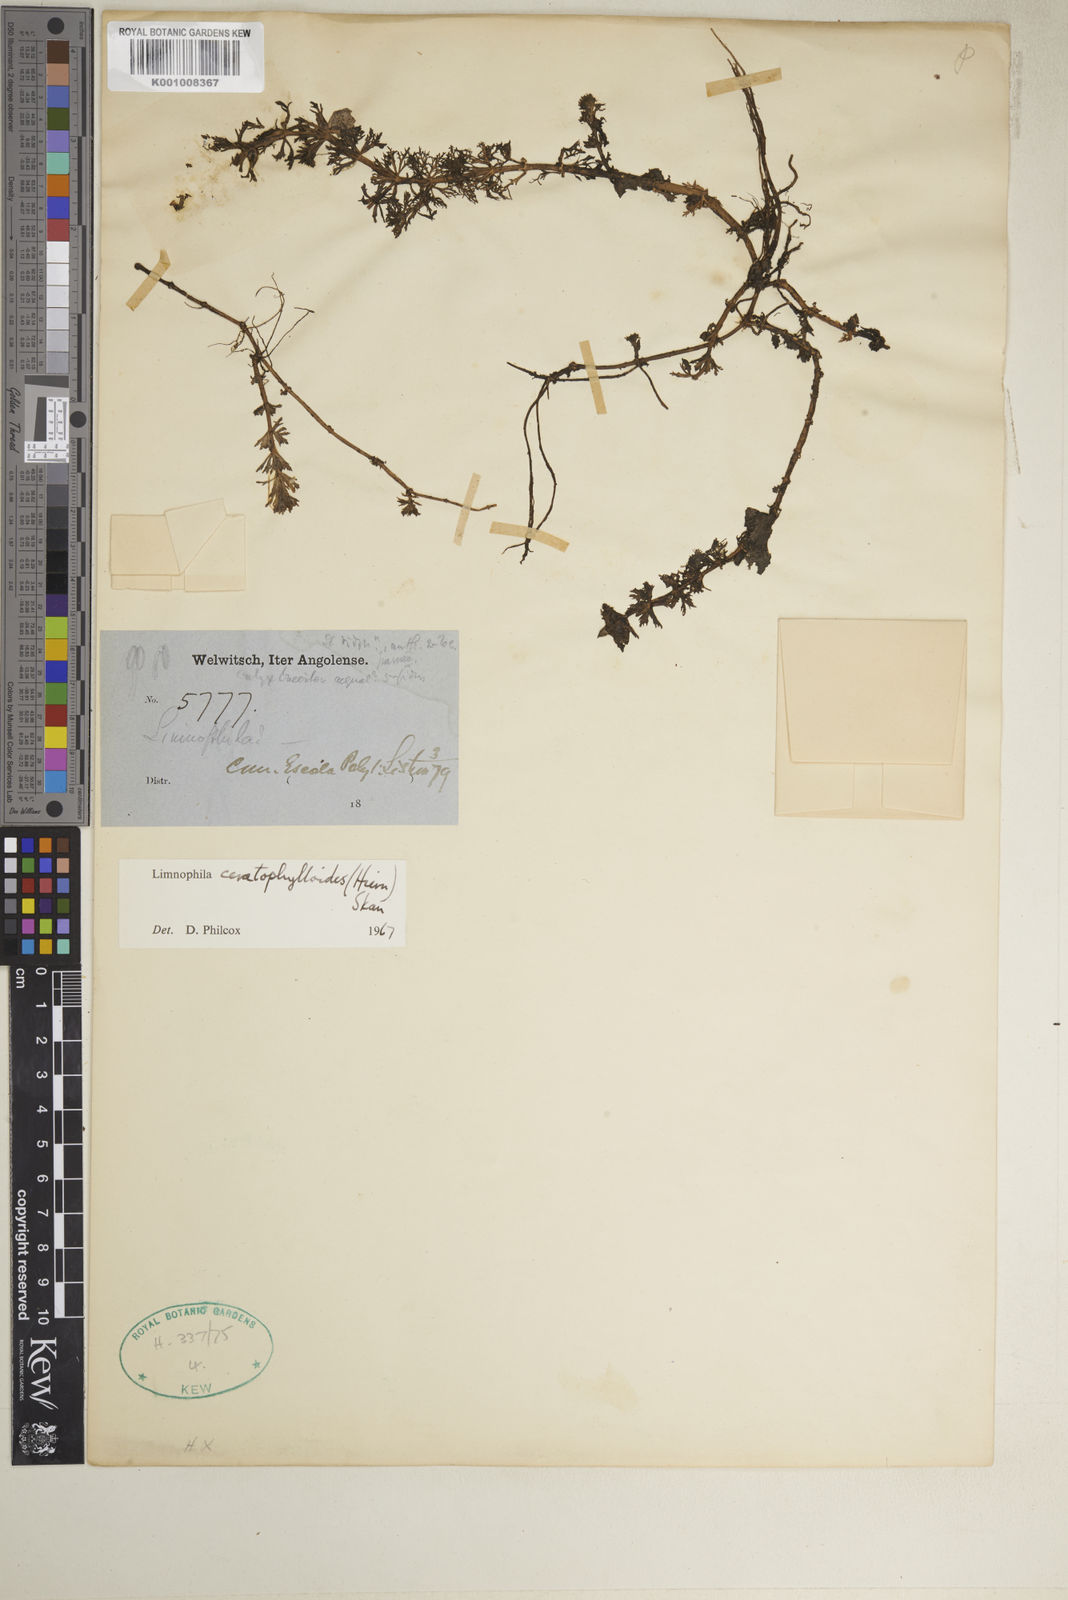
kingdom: Plantae
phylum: Tracheophyta
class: Magnoliopsida
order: Lamiales
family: Plantaginaceae
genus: Limnophila
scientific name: Limnophila ceratophylloides
